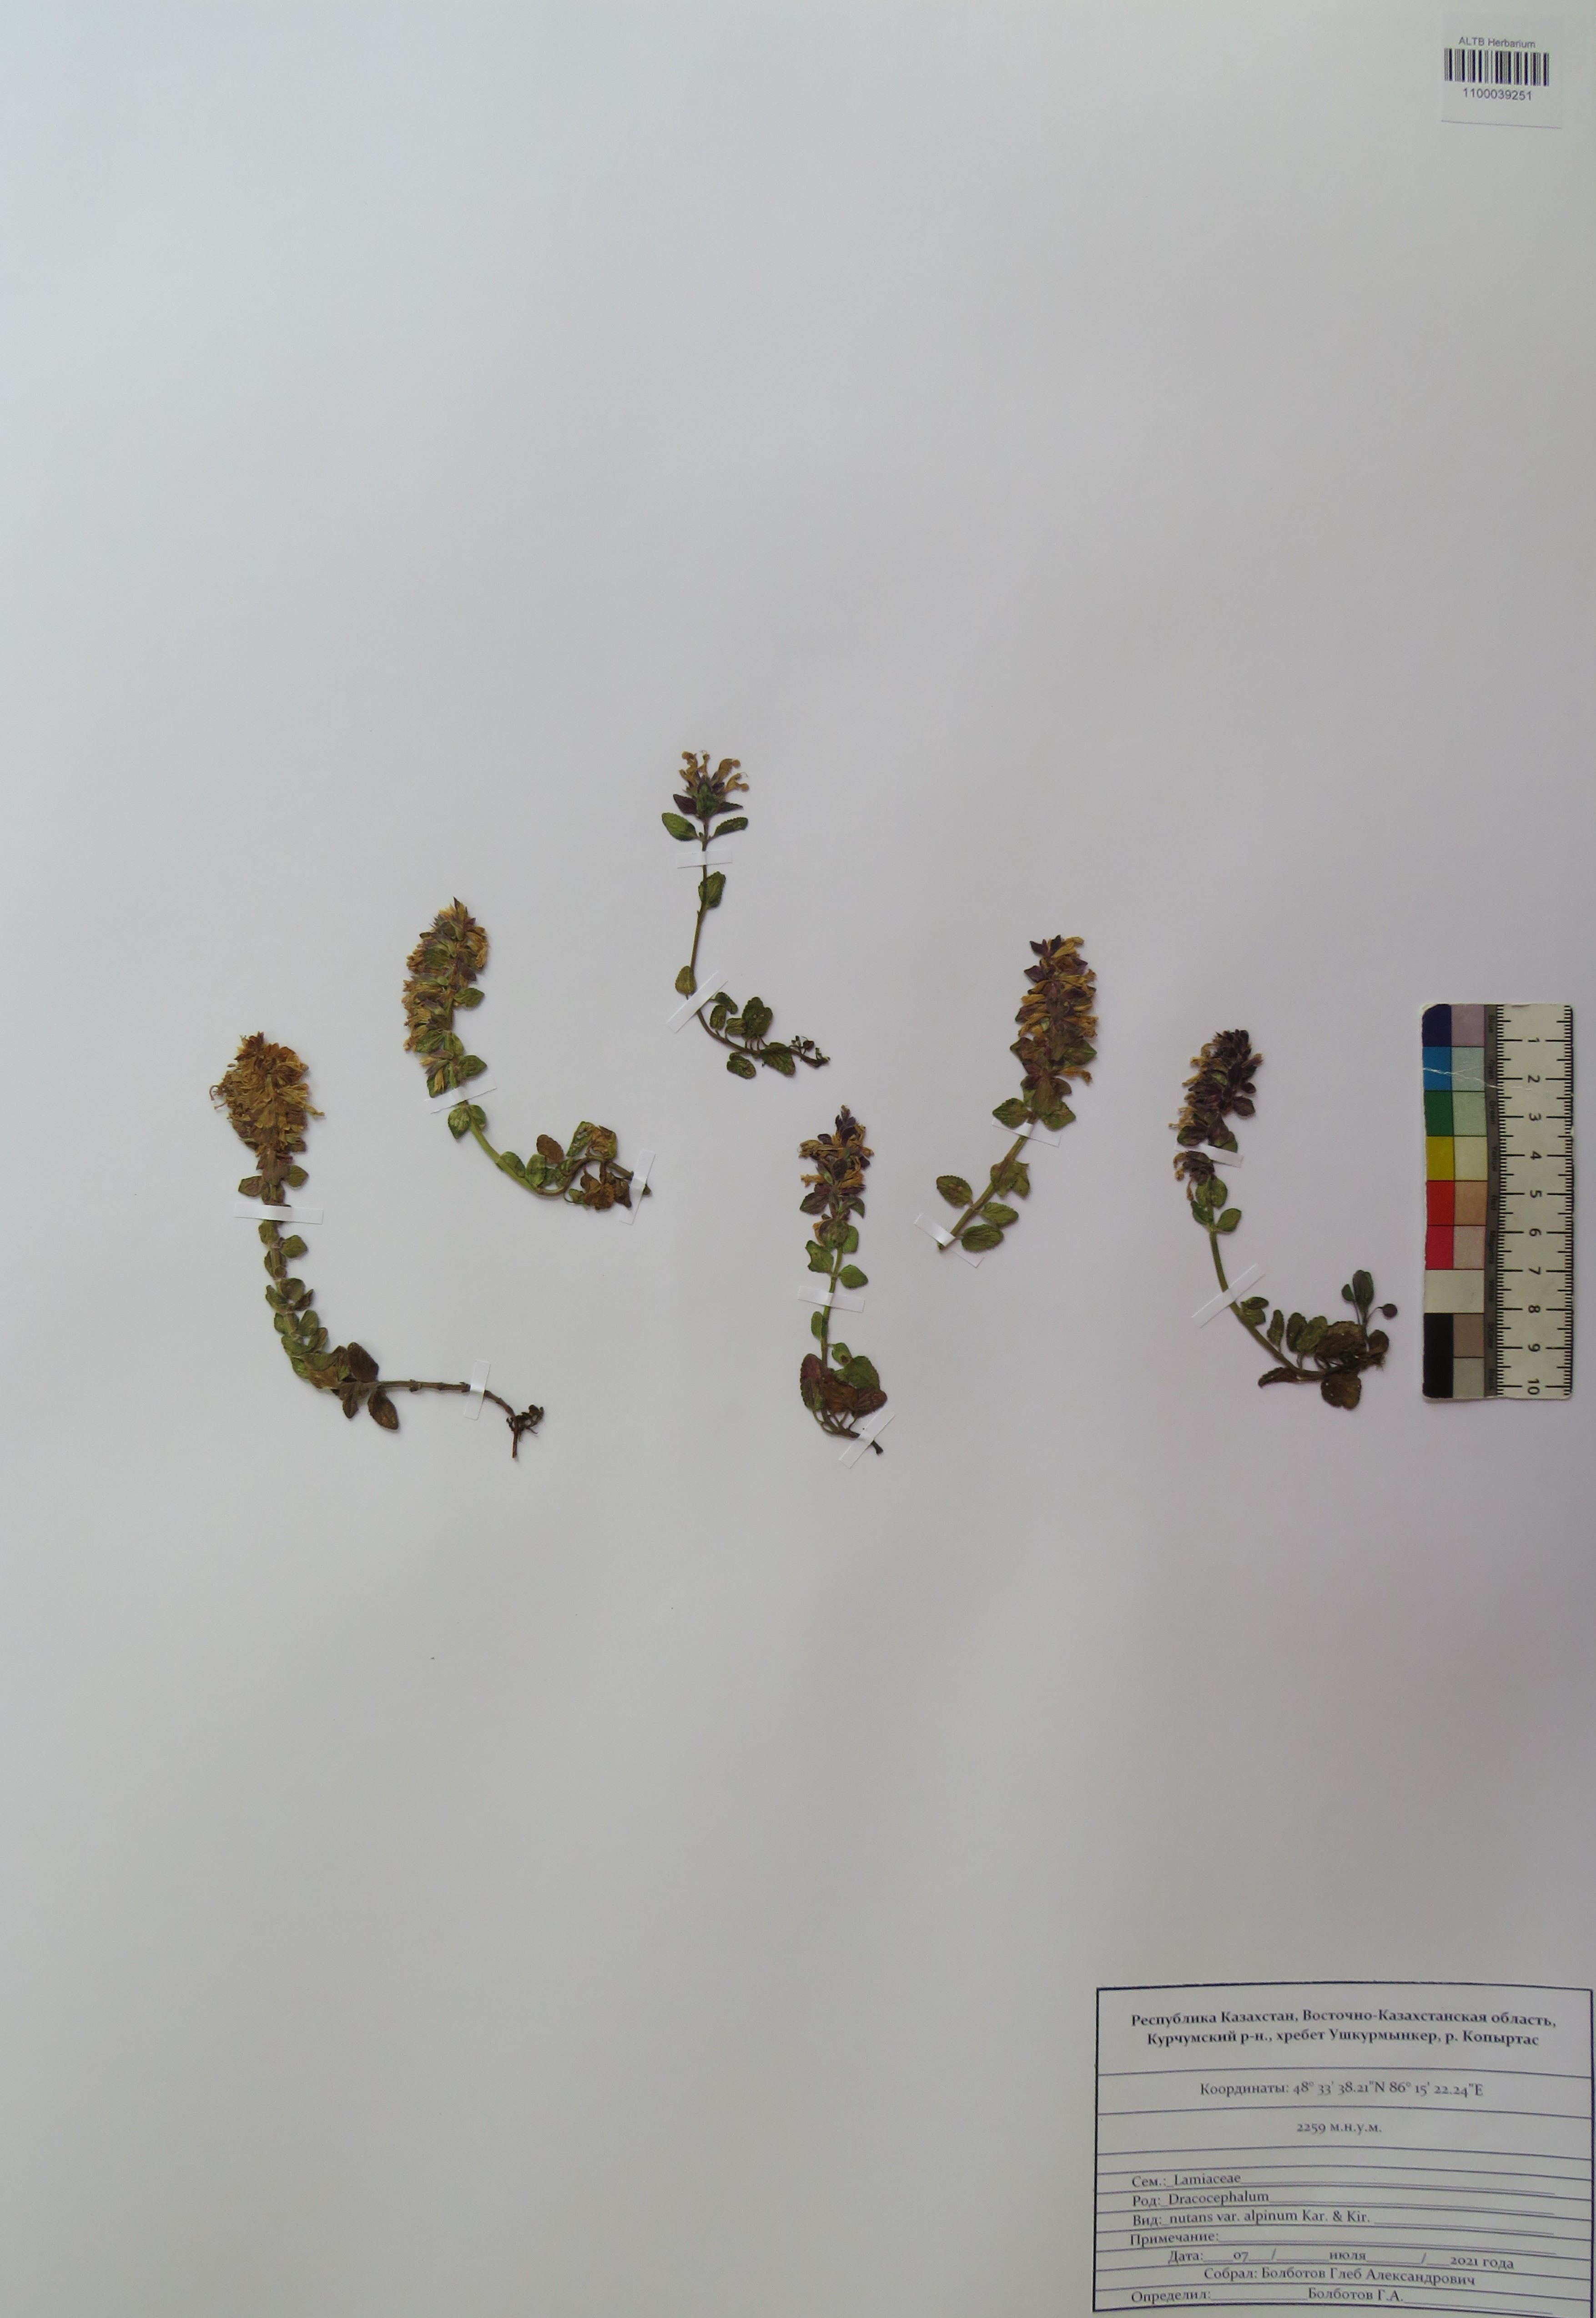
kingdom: Plantae
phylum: Tracheophyta
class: Magnoliopsida
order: Lamiales
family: Lamiaceae
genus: Dracocephalum
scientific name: Dracocephalum nutans
